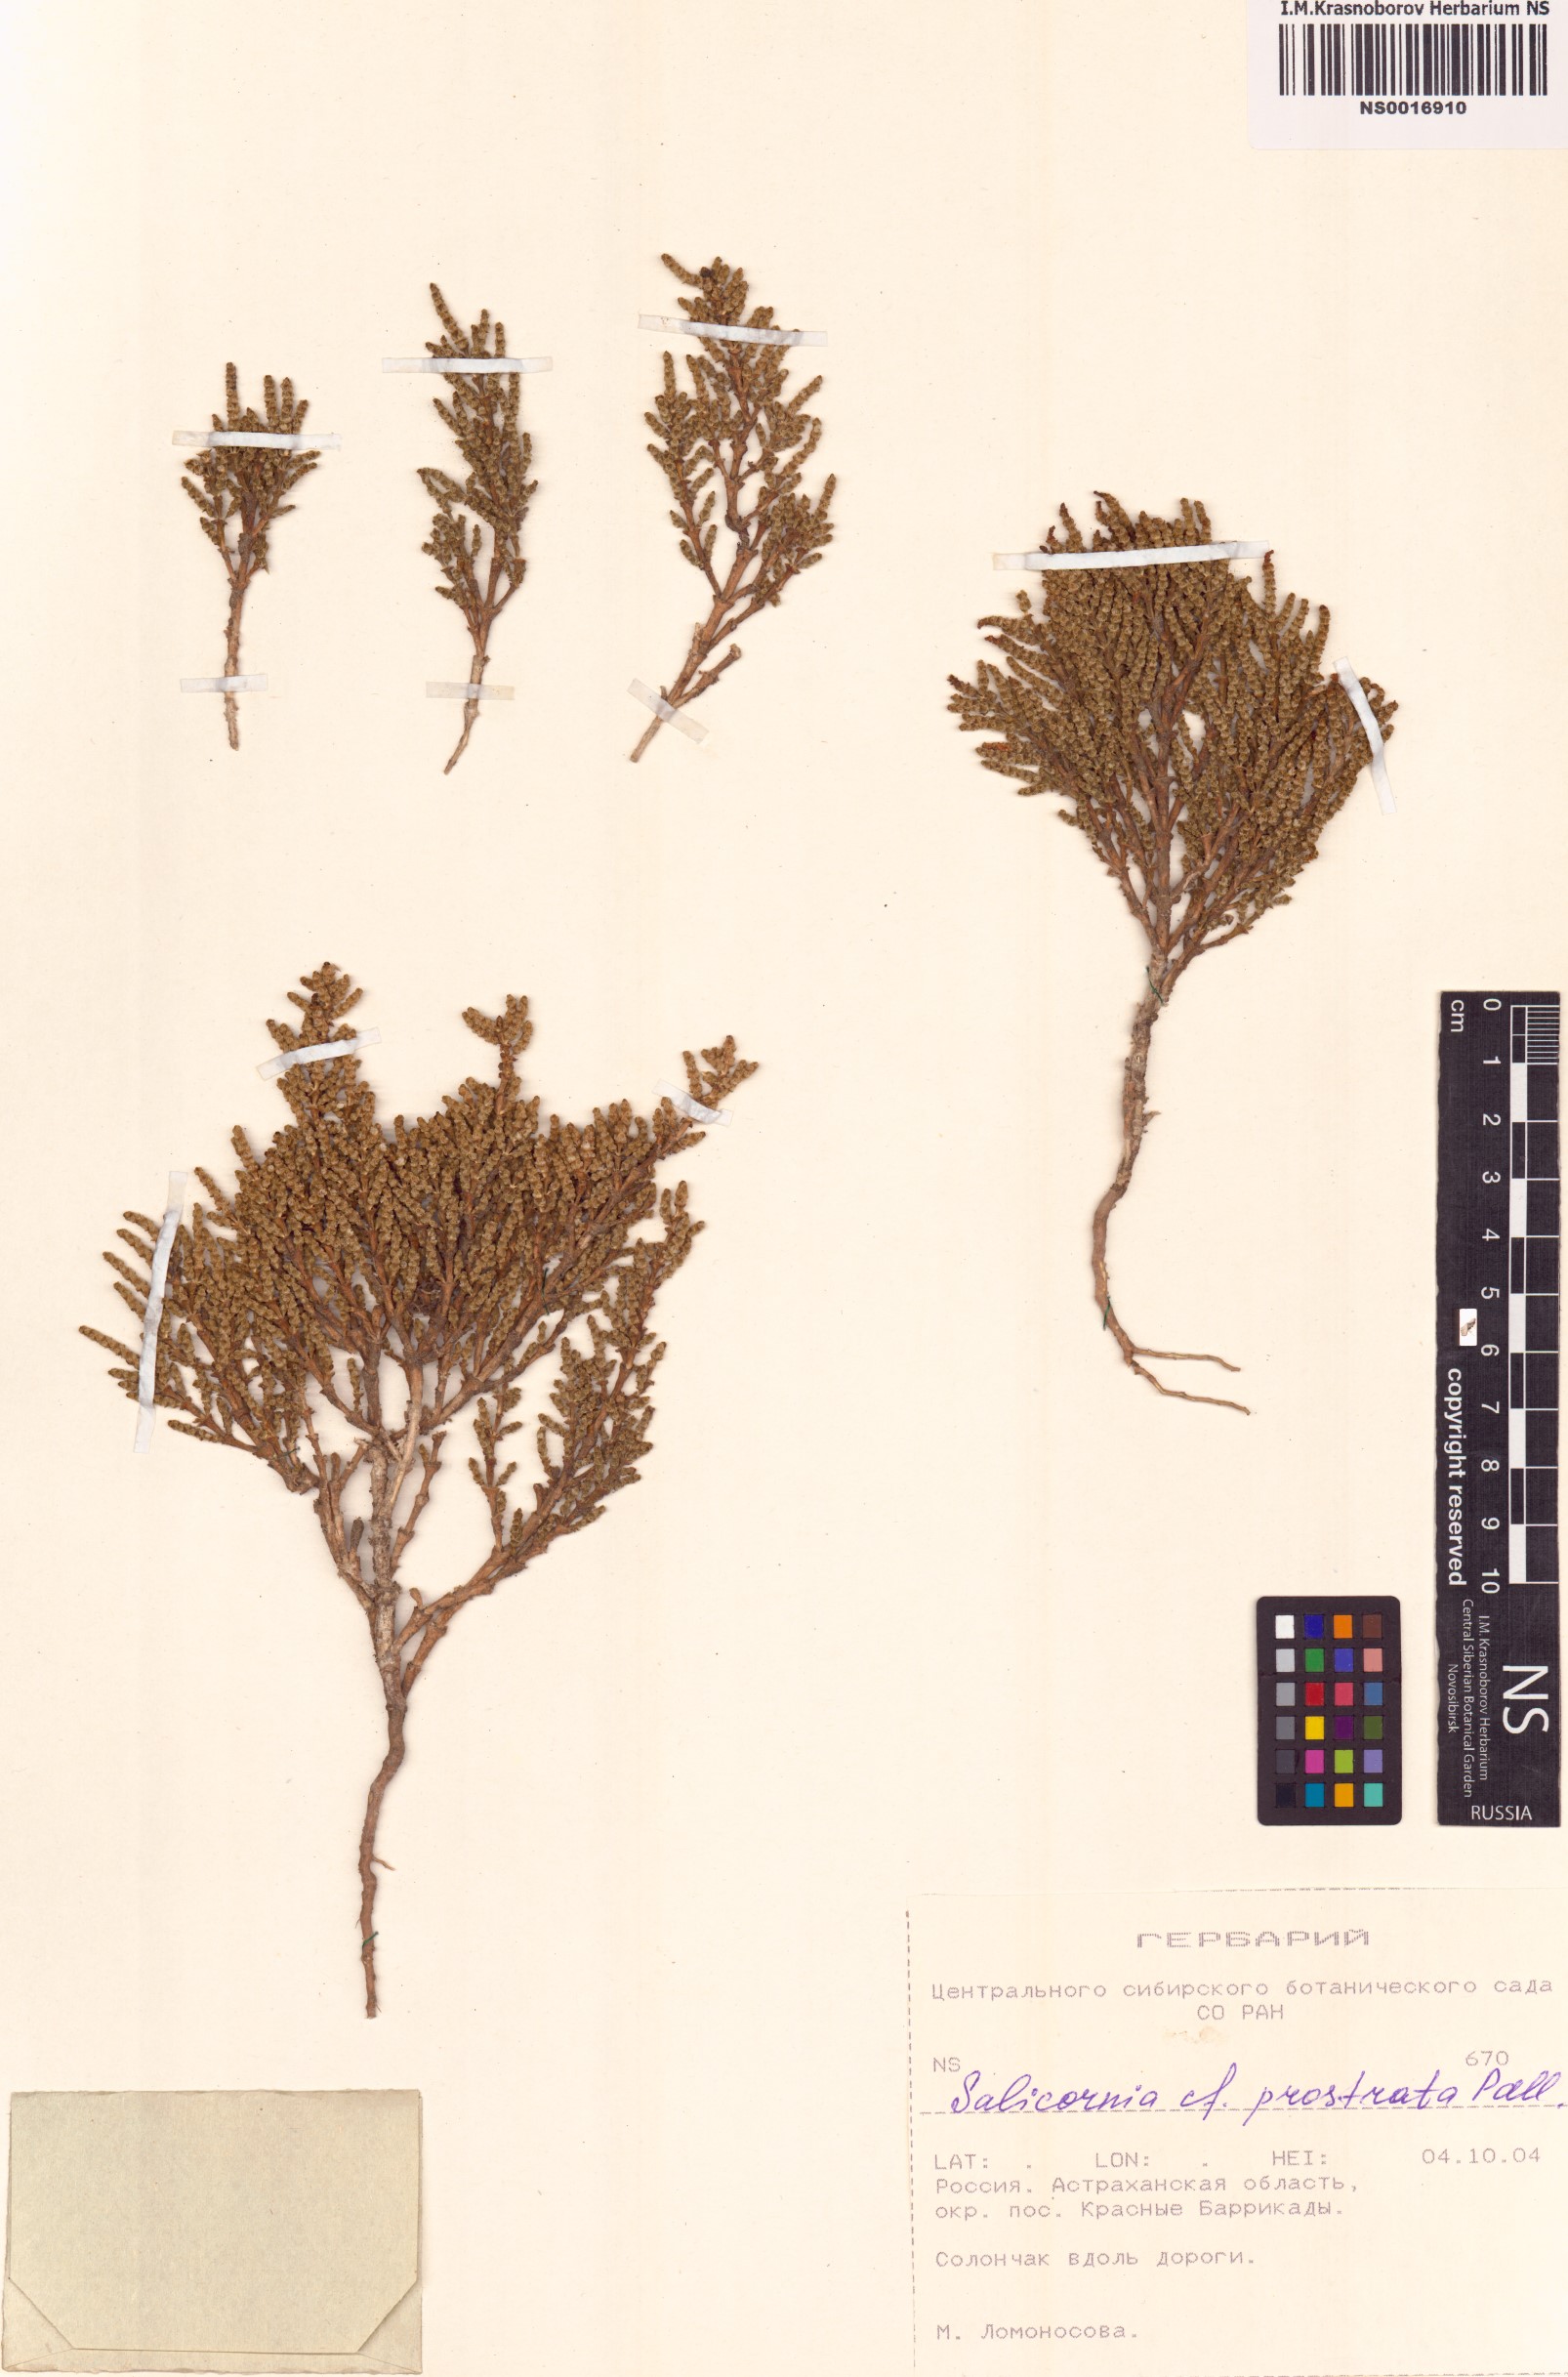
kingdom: Plantae
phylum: Tracheophyta
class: Magnoliopsida
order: Caryophyllales
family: Amaranthaceae
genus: Salicornia
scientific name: Salicornia perennans
